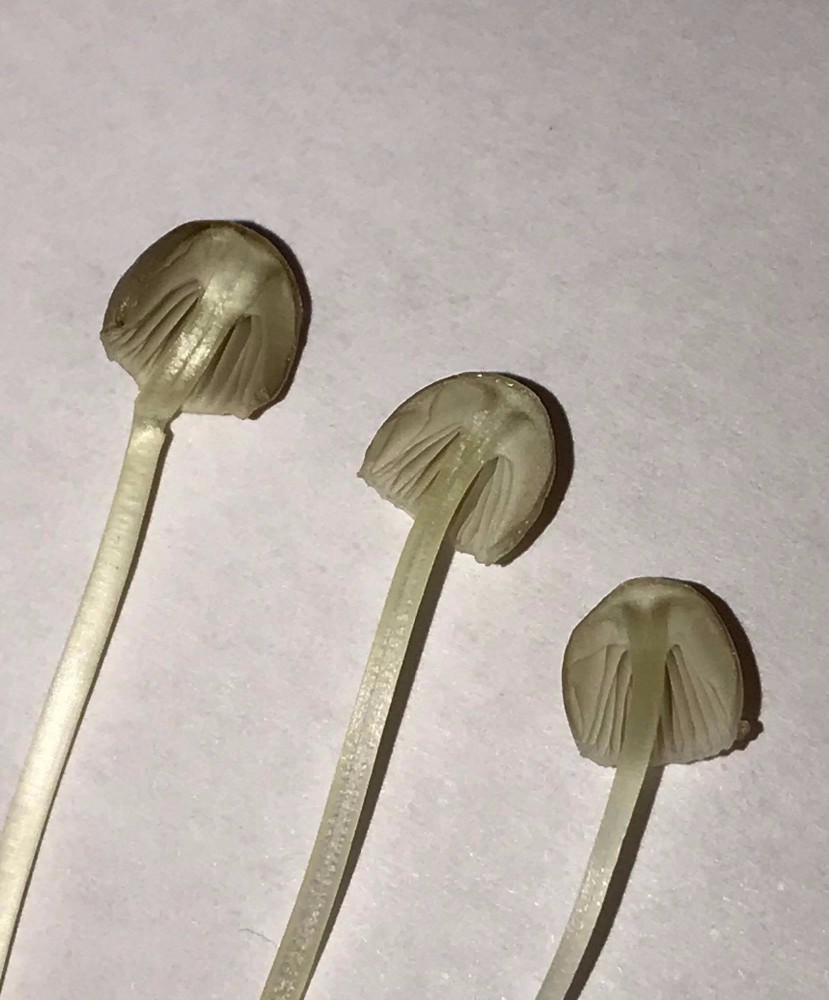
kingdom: Fungi
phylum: Basidiomycota
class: Agaricomycetes
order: Agaricales
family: Mycenaceae
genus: Mycena
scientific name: Mycena epipterygia
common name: gulstokket huesvamp
